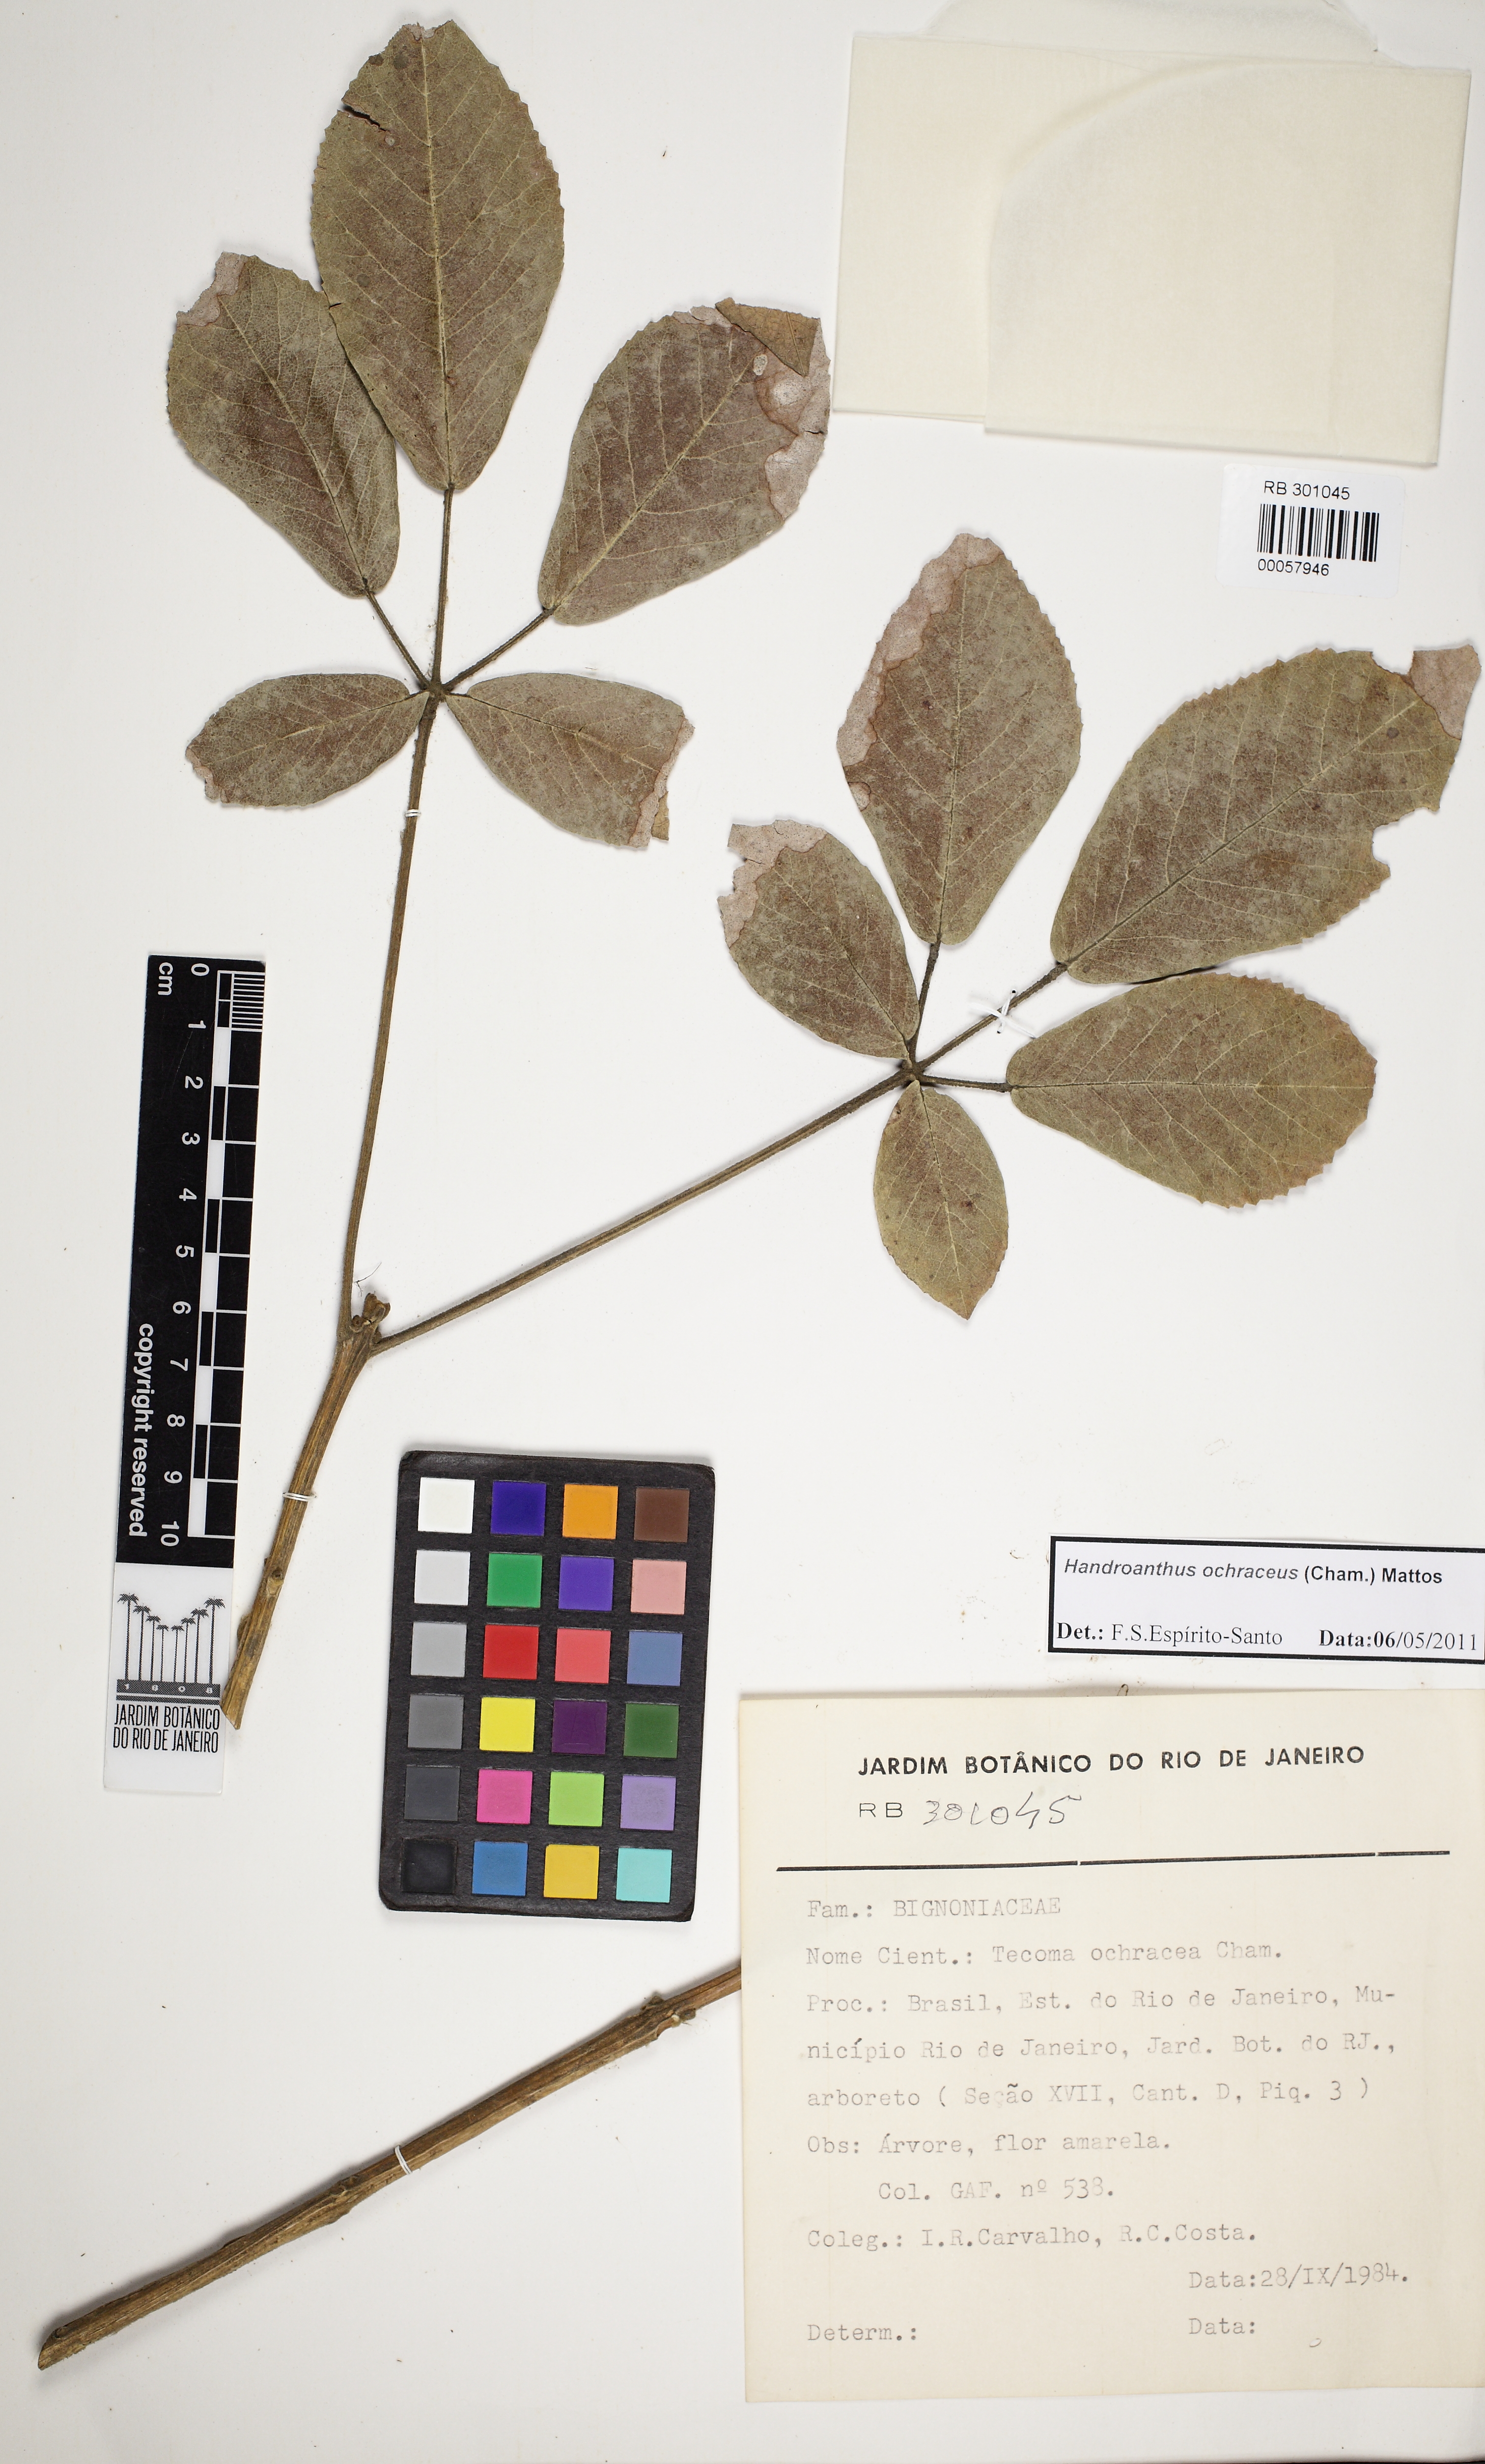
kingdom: Plantae
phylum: Tracheophyta
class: Magnoliopsida
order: Lamiales
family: Bignoniaceae
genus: Handroanthus
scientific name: Handroanthus ochraceus
